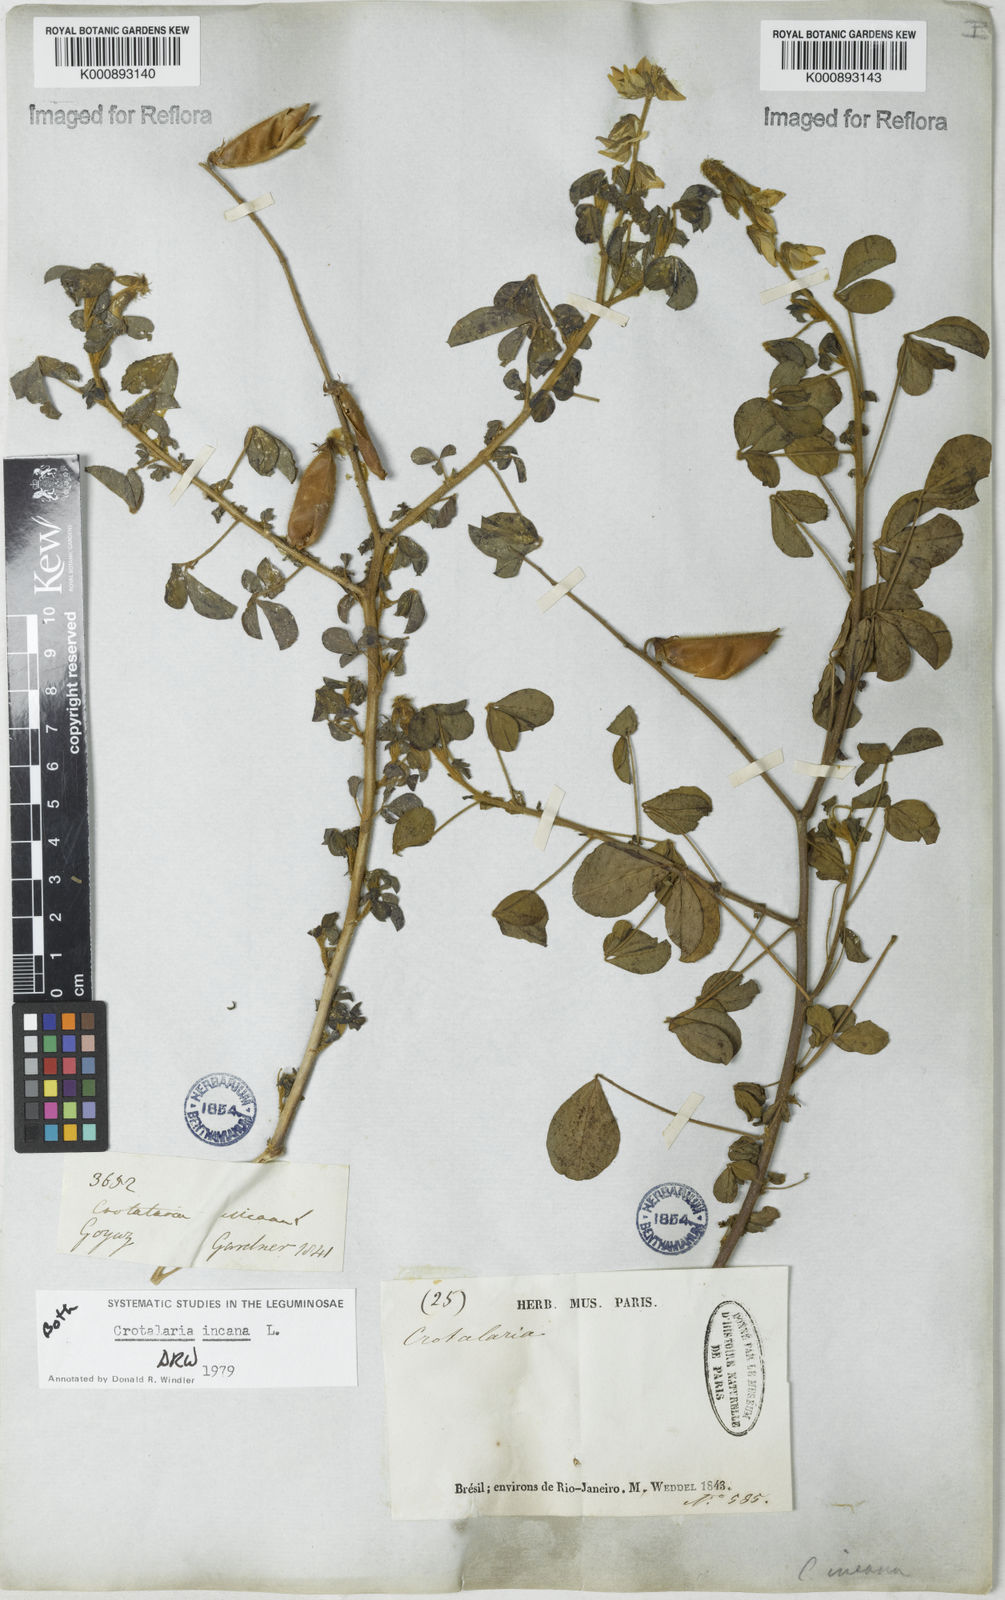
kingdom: Plantae
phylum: Tracheophyta
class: Magnoliopsida
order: Fabales
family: Fabaceae
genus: Crotalaria
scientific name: Crotalaria incana
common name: Shakeshake
